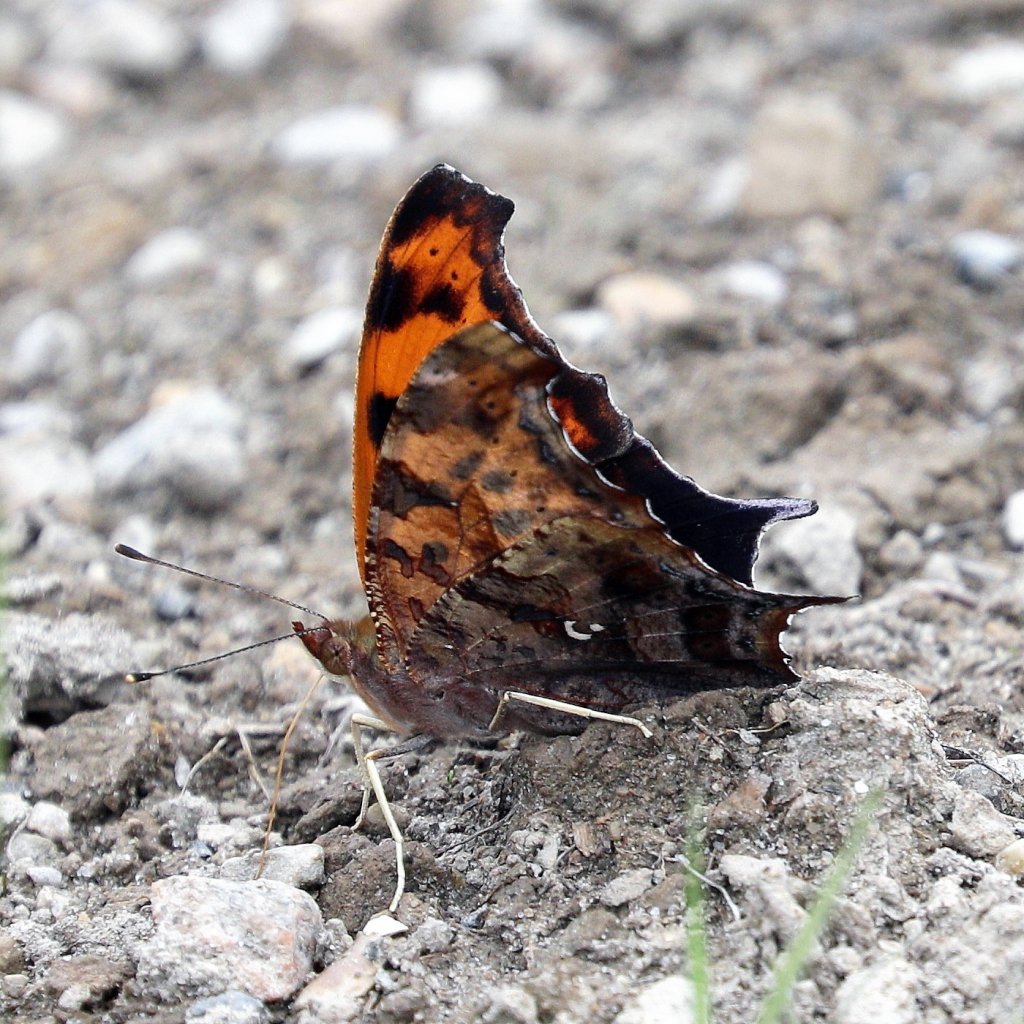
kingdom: Animalia
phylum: Arthropoda
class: Insecta
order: Lepidoptera
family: Nymphalidae
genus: Polygonia
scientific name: Polygonia interrogationis
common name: Question Mark
